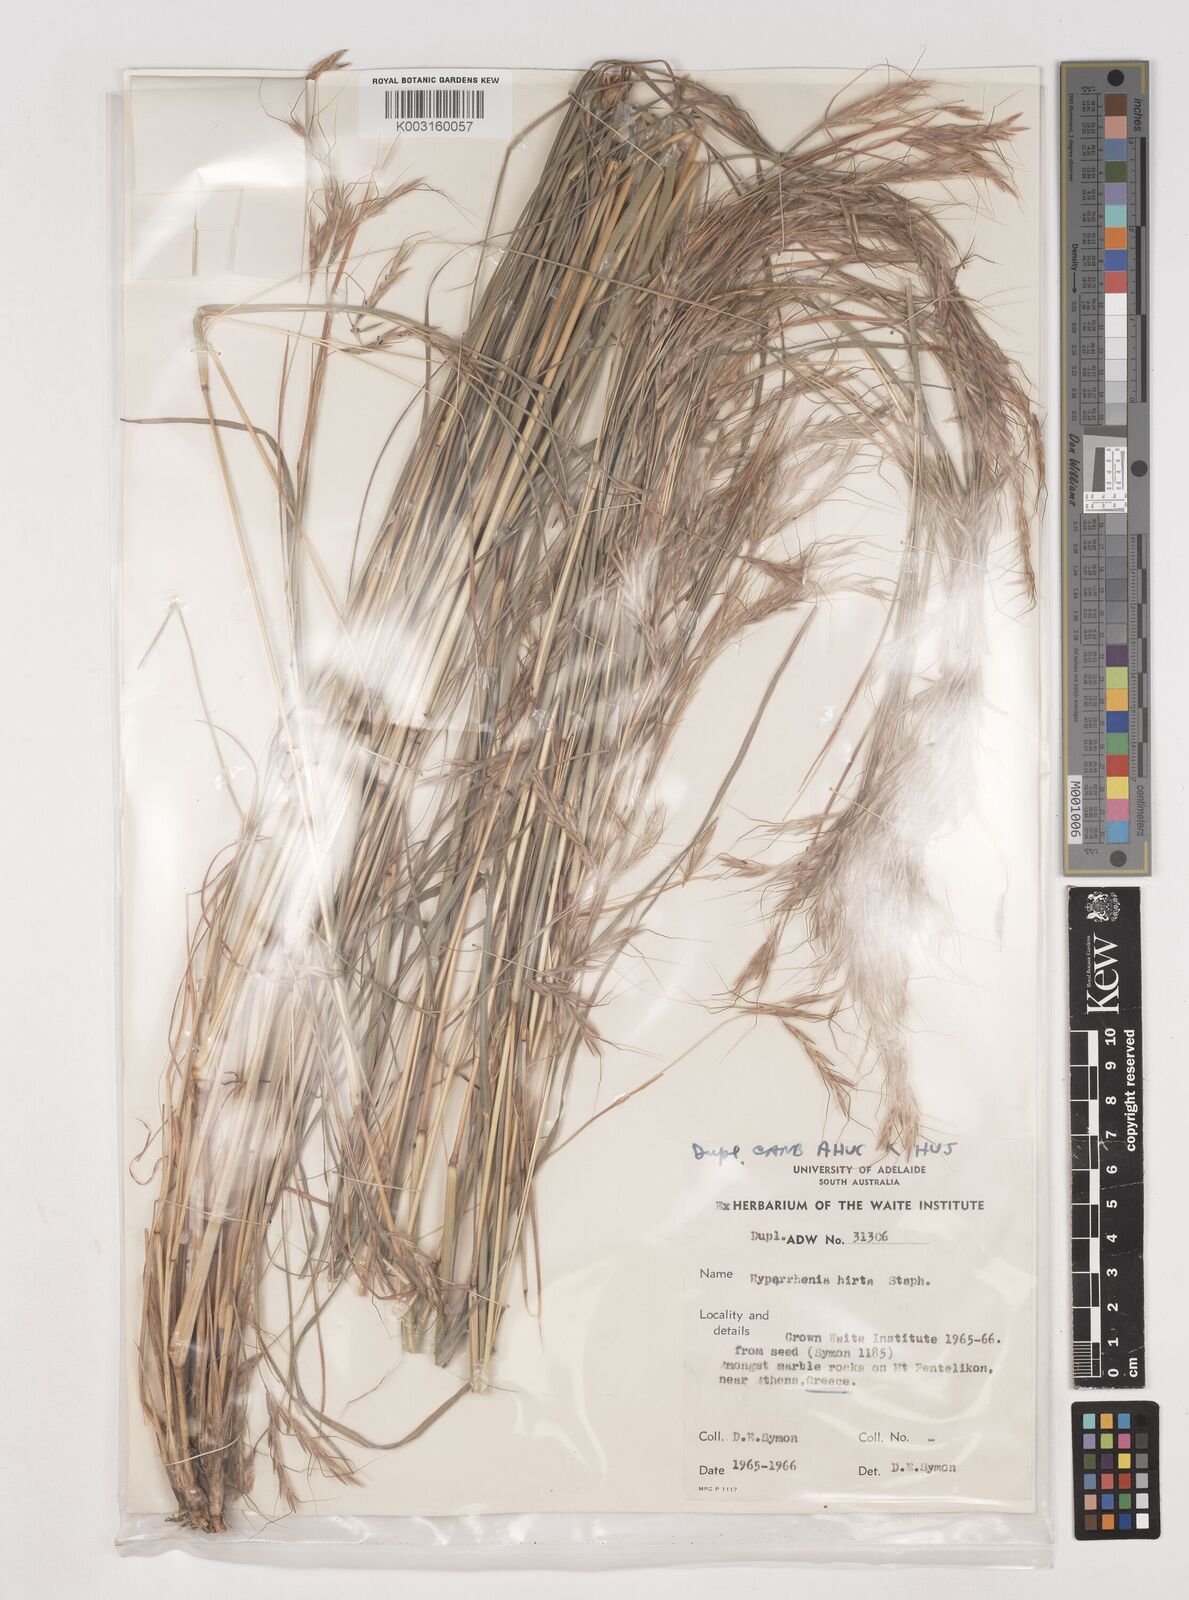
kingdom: Plantae
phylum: Tracheophyta
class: Liliopsida
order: Poales
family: Poaceae
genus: Hyparrhenia
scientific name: Hyparrhenia hirta
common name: Thatching grass
